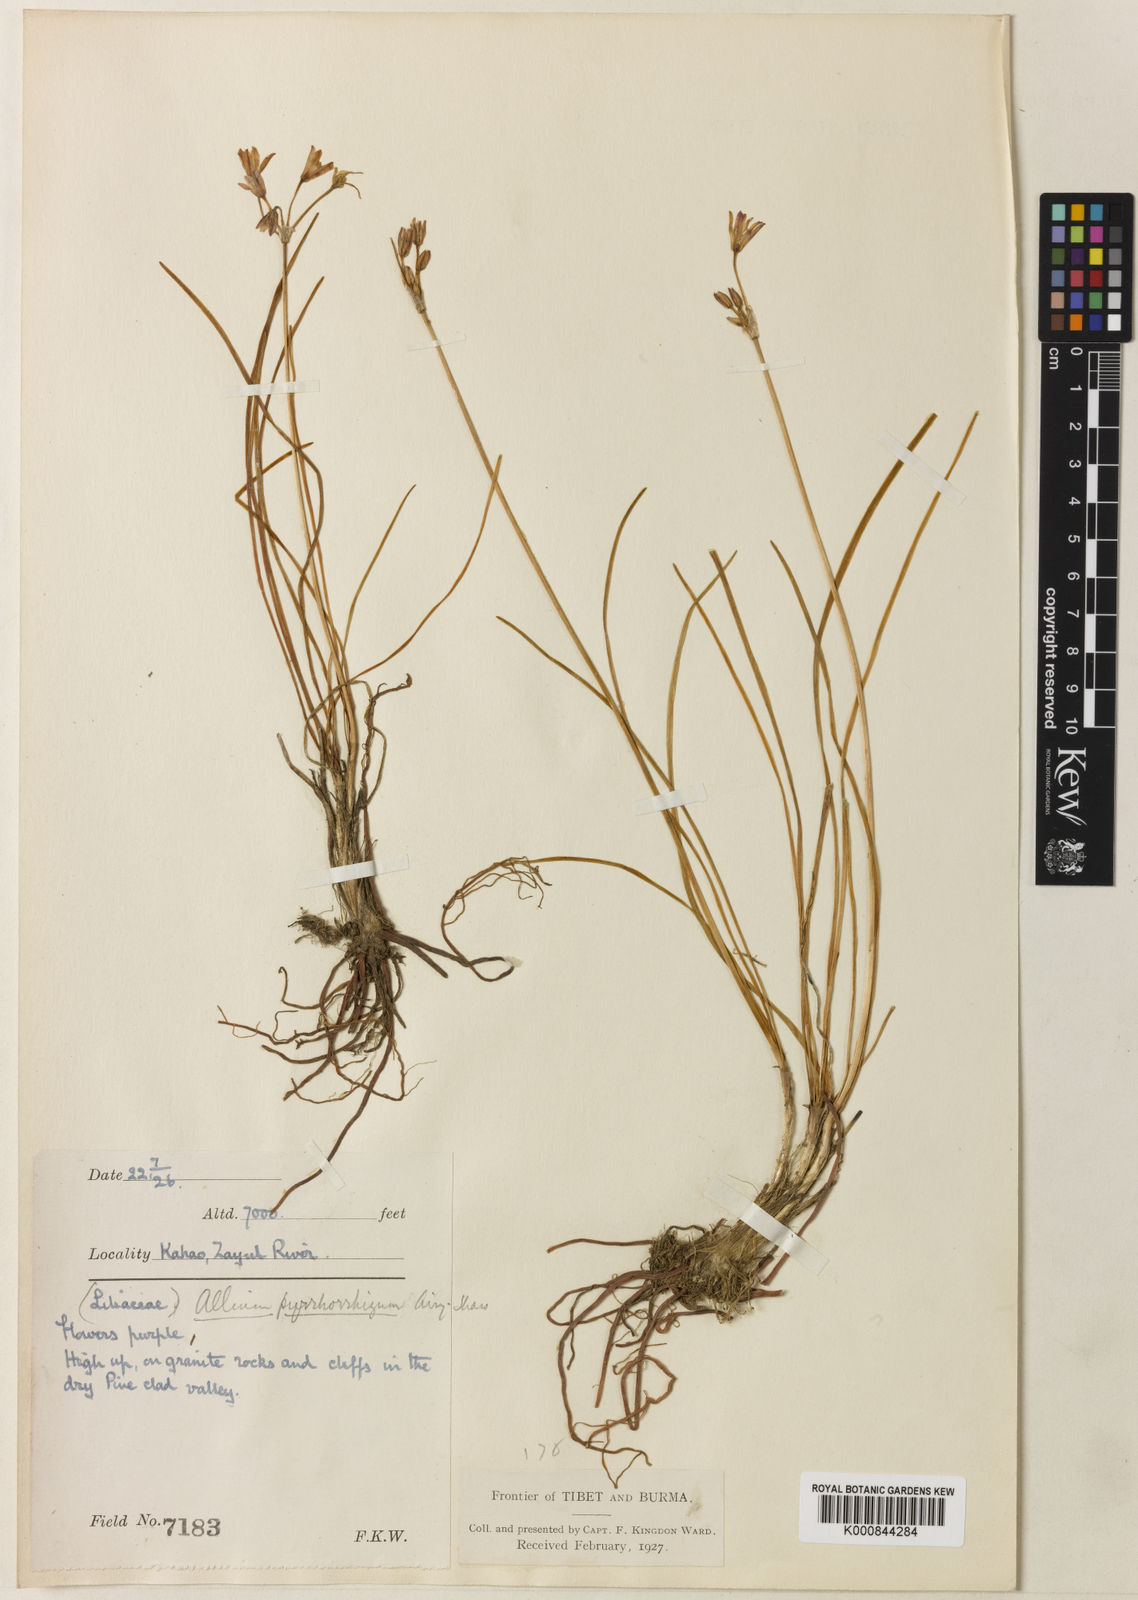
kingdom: Plantae
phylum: Tracheophyta
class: Liliopsida
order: Asparagales
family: Amaryllidaceae
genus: Allium
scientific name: Allium mairei
